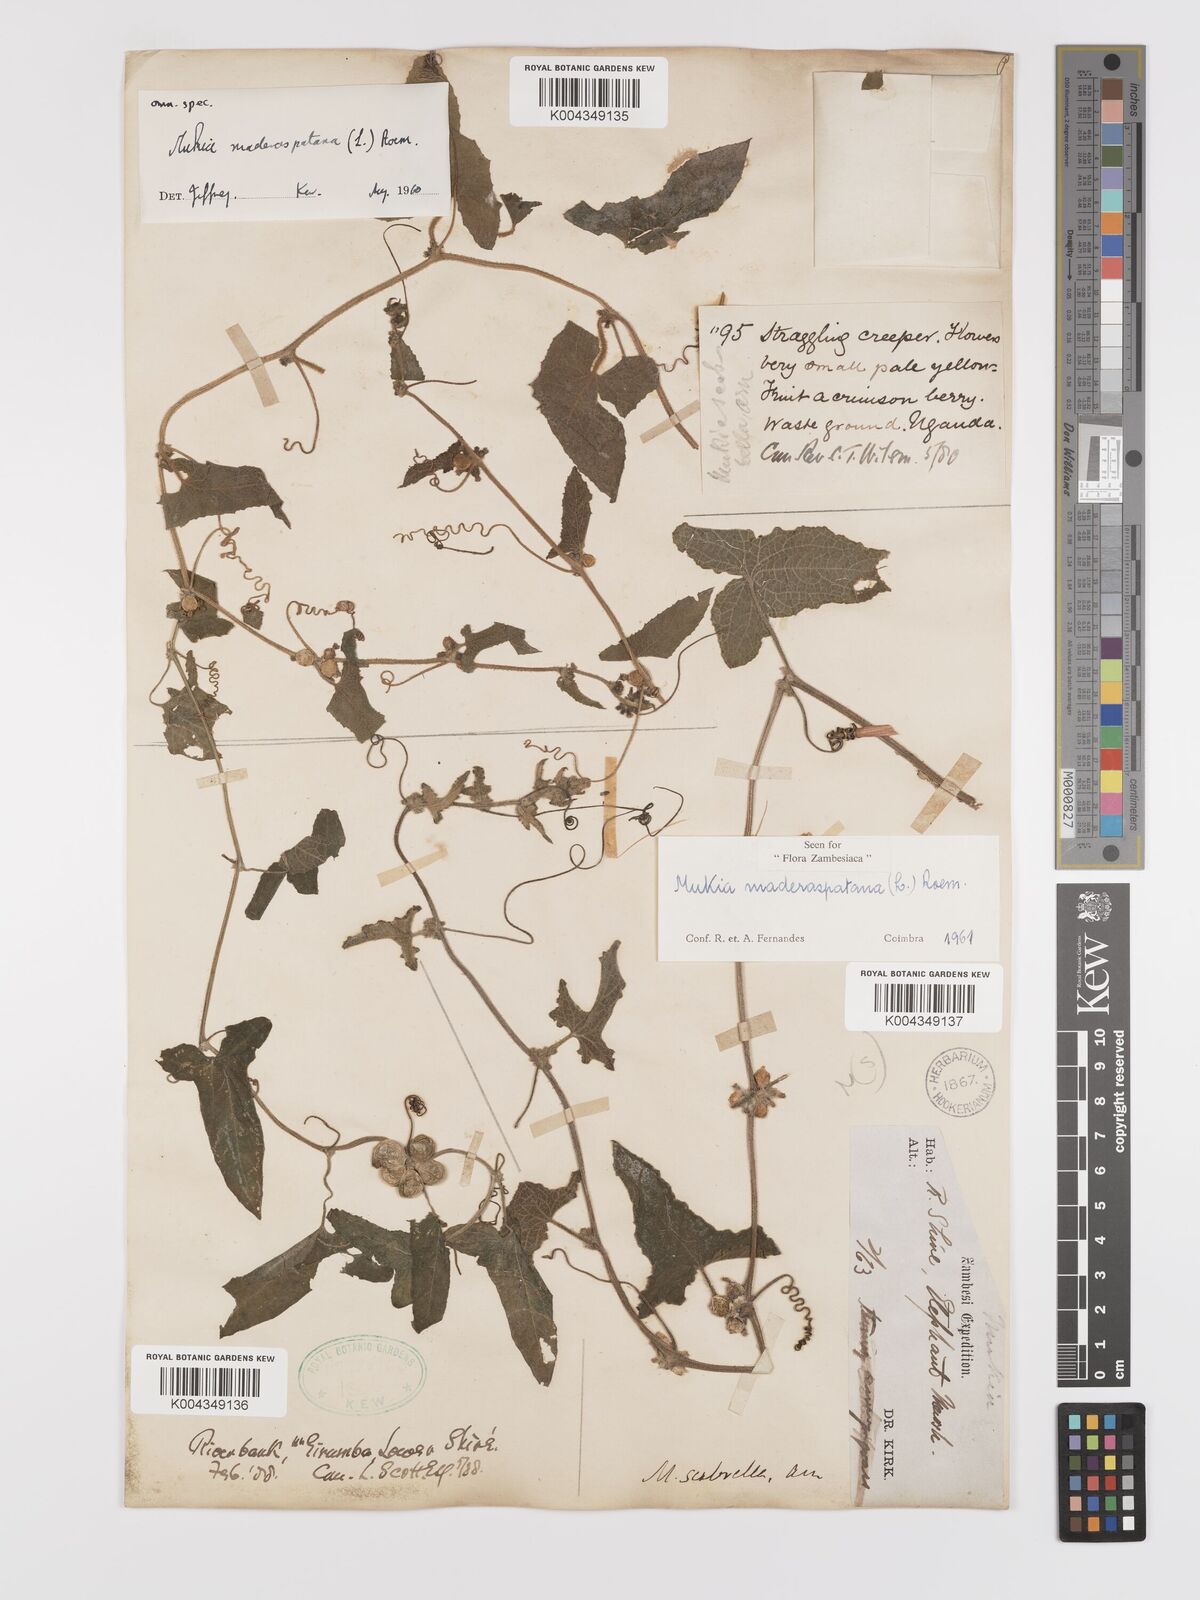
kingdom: Plantae
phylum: Tracheophyta
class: Magnoliopsida
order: Cucurbitales
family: Cucurbitaceae
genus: Cucumis
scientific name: Cucumis maderaspatanus
